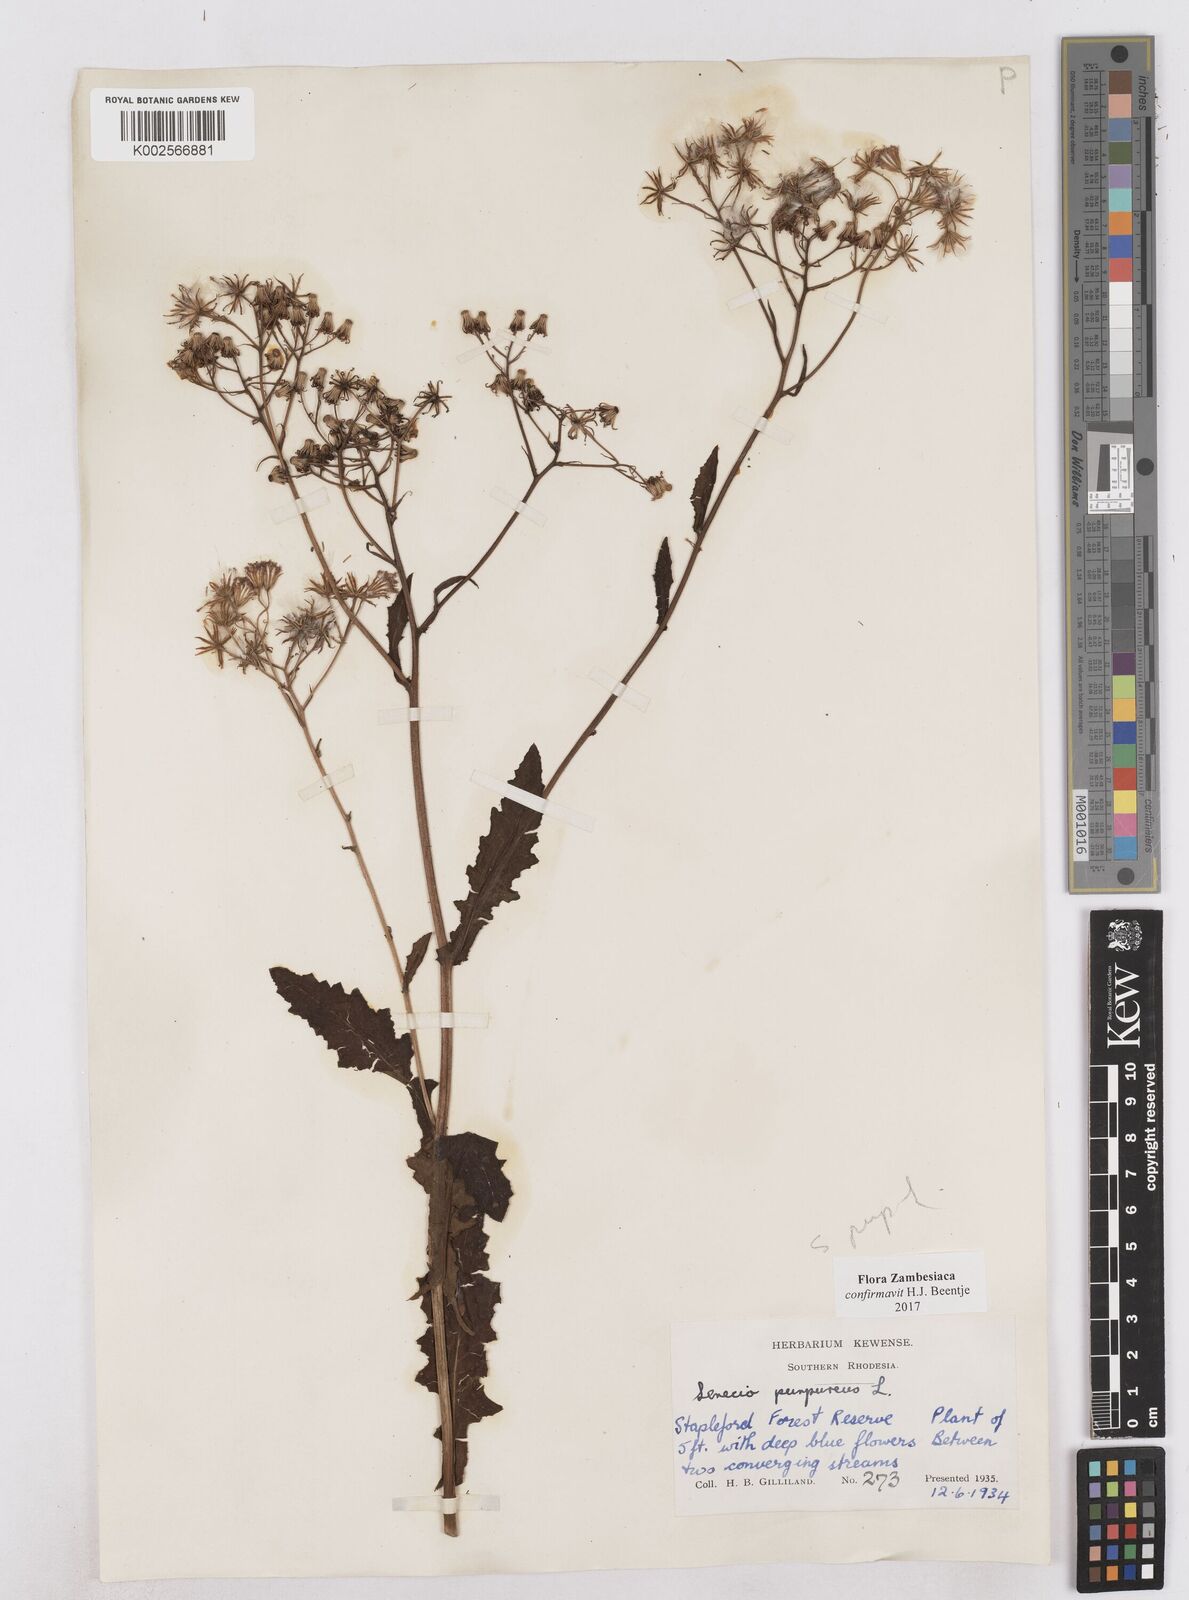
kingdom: Plantae
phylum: Tracheophyta
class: Magnoliopsida
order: Asterales
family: Asteraceae
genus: Senecio
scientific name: Senecio purpureus
